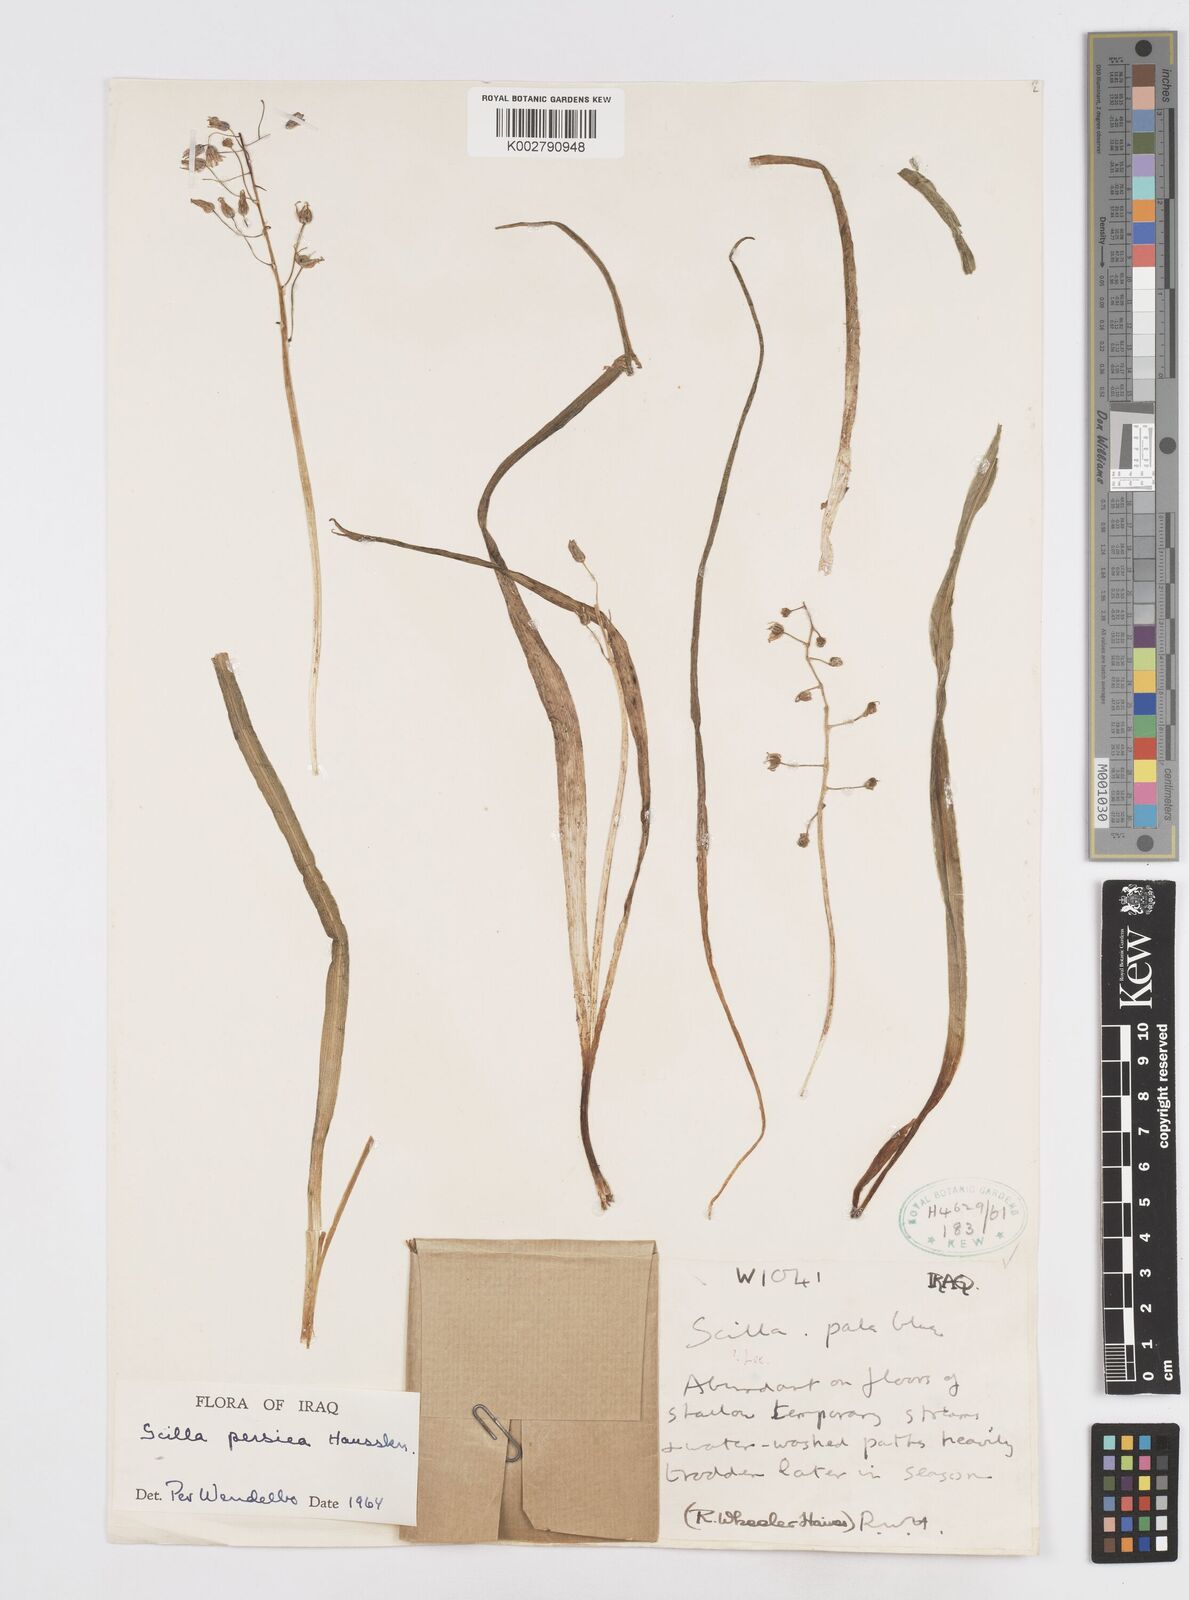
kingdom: Plantae
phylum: Tracheophyta
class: Liliopsida
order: Asparagales
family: Asparagaceae
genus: Zagrosia
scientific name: Zagrosia persica
